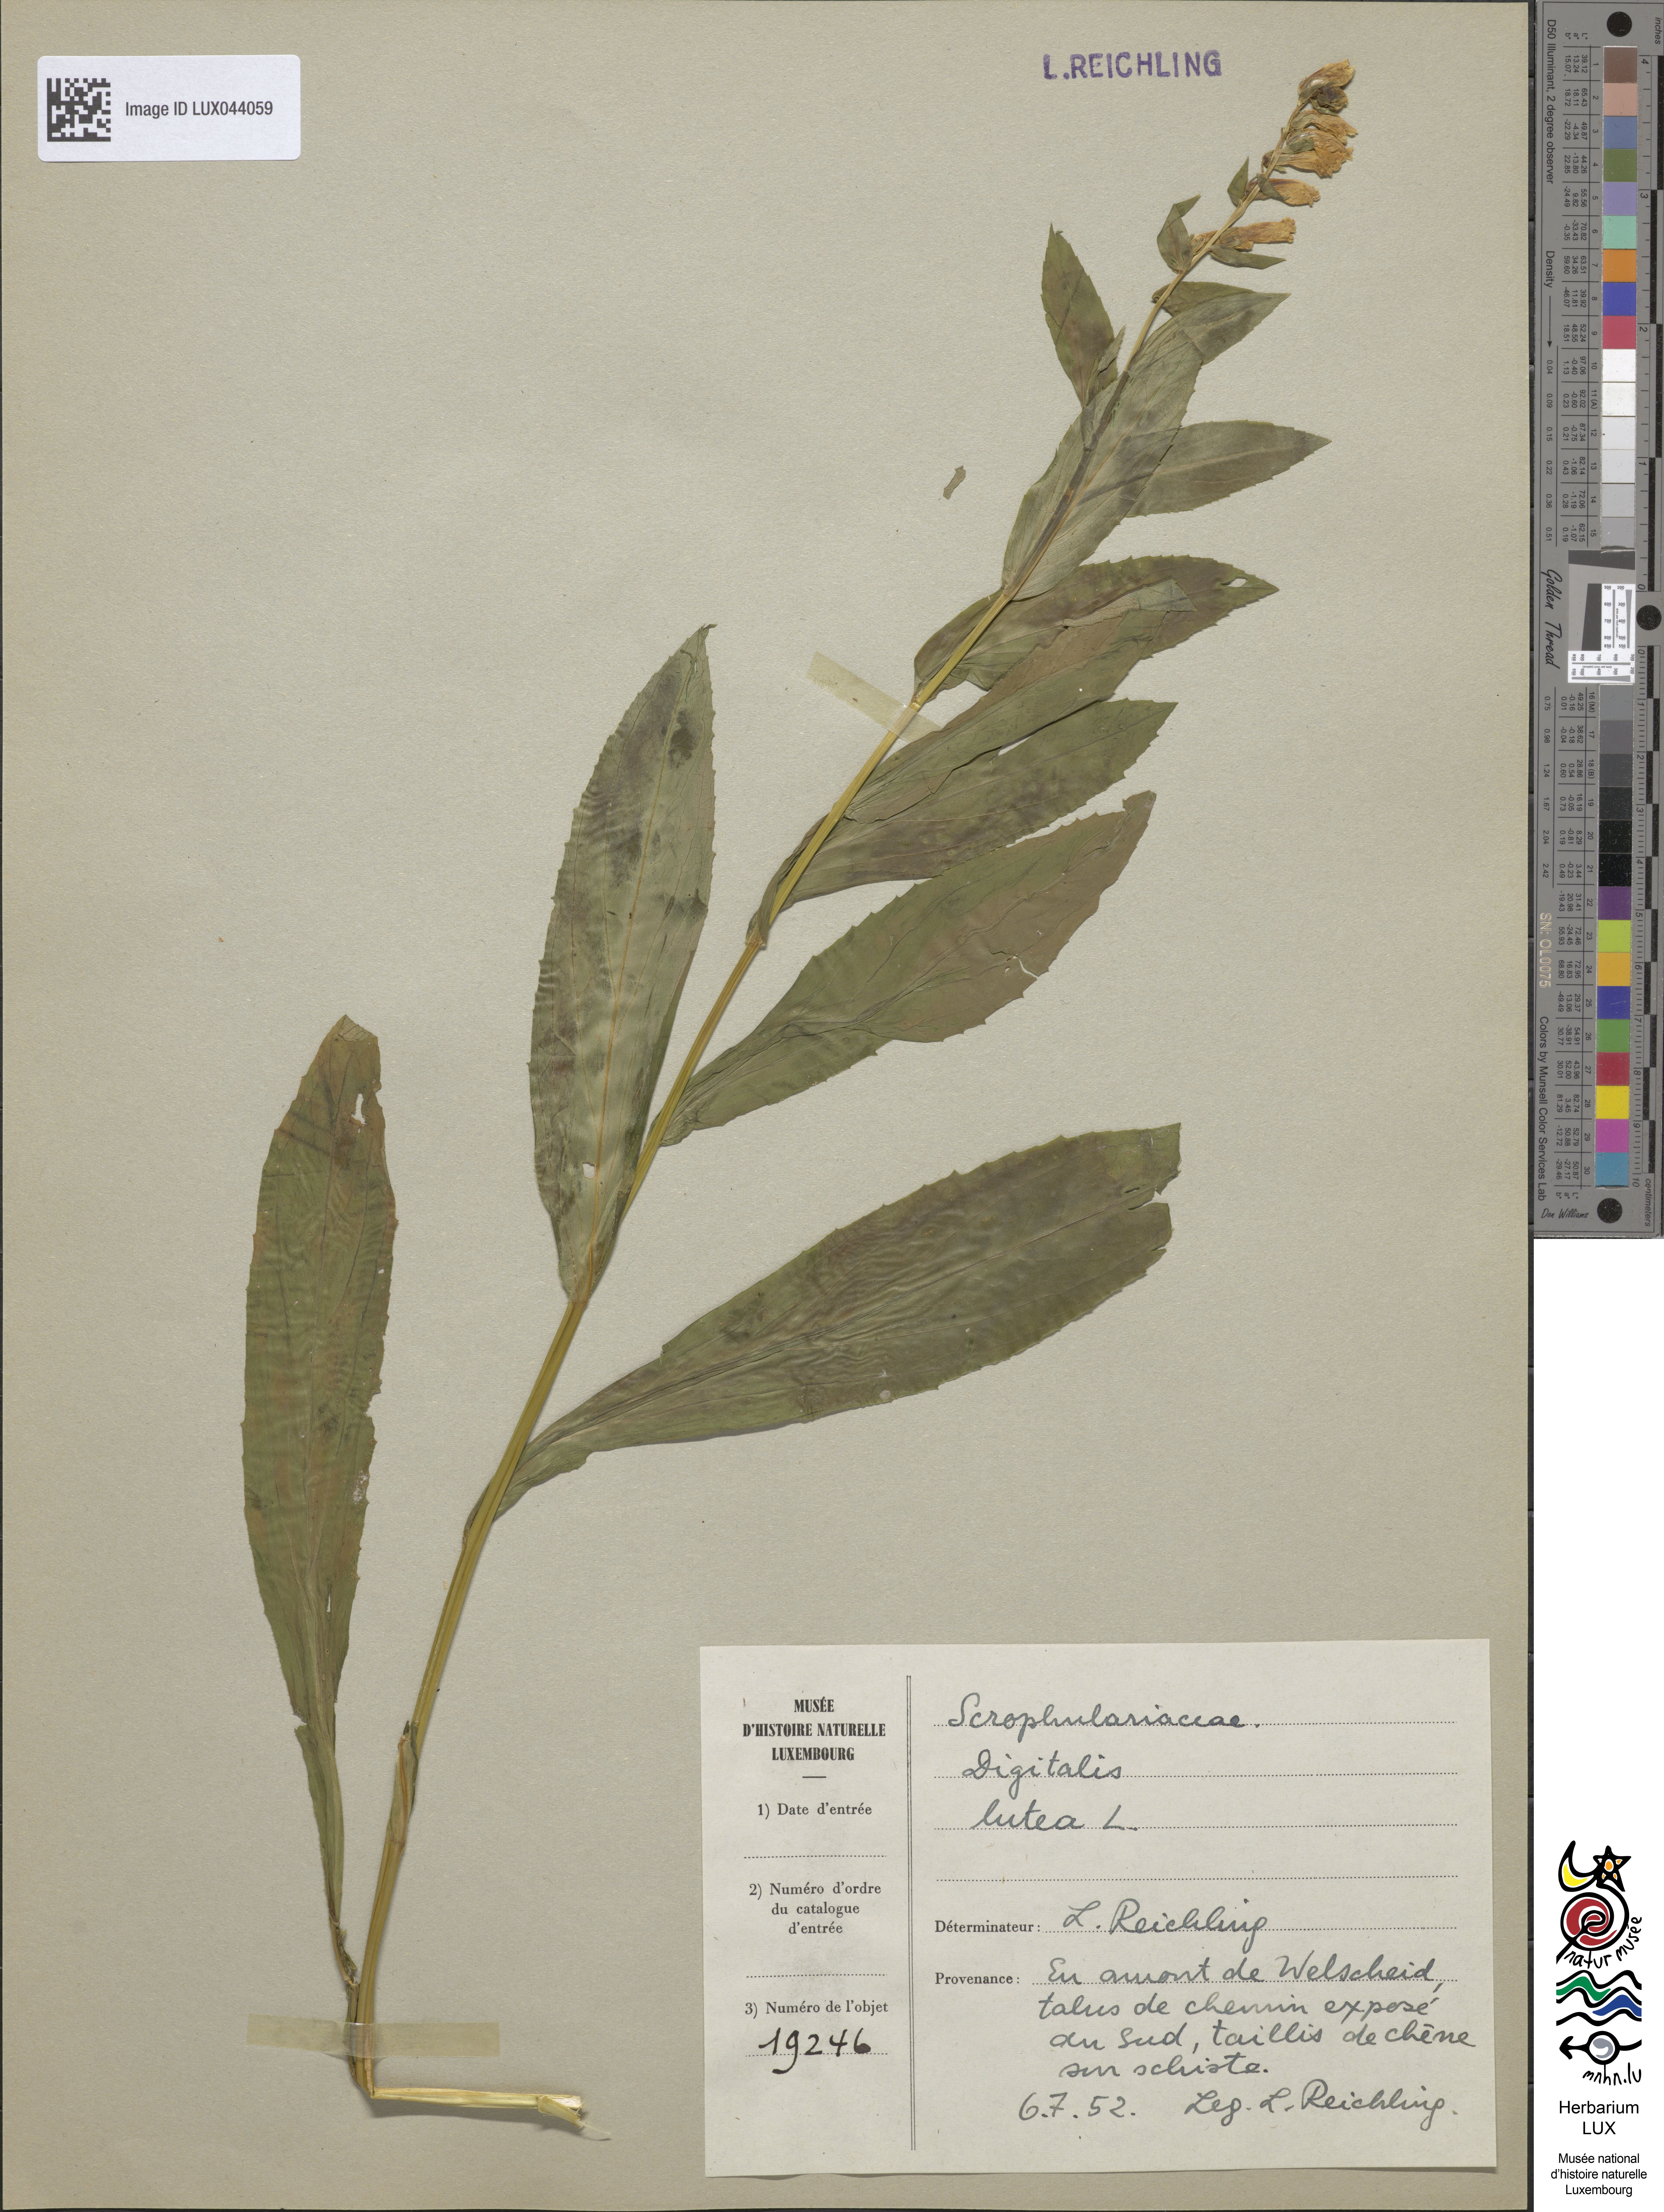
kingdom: Plantae
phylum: Tracheophyta
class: Magnoliopsida
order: Lamiales
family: Plantaginaceae
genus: Digitalis
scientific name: Digitalis lutea
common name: Straw foxglove
